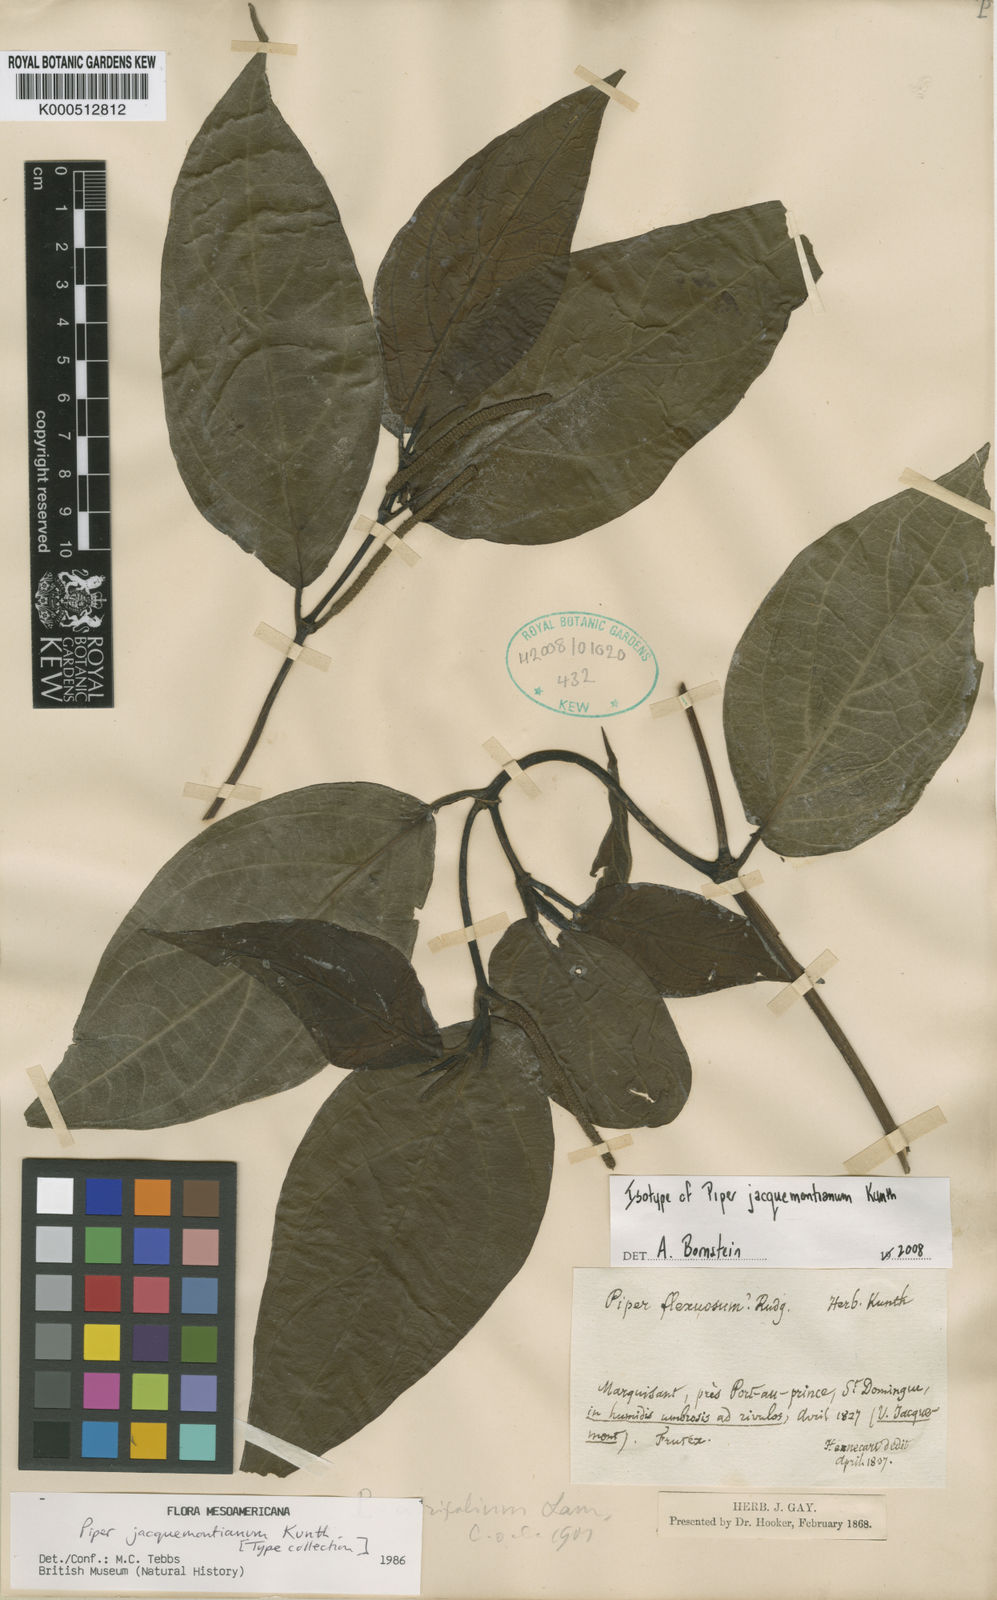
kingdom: Plantae
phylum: Tracheophyta
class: Magnoliopsida
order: Piperales
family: Piperaceae
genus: Piper
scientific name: Piper
